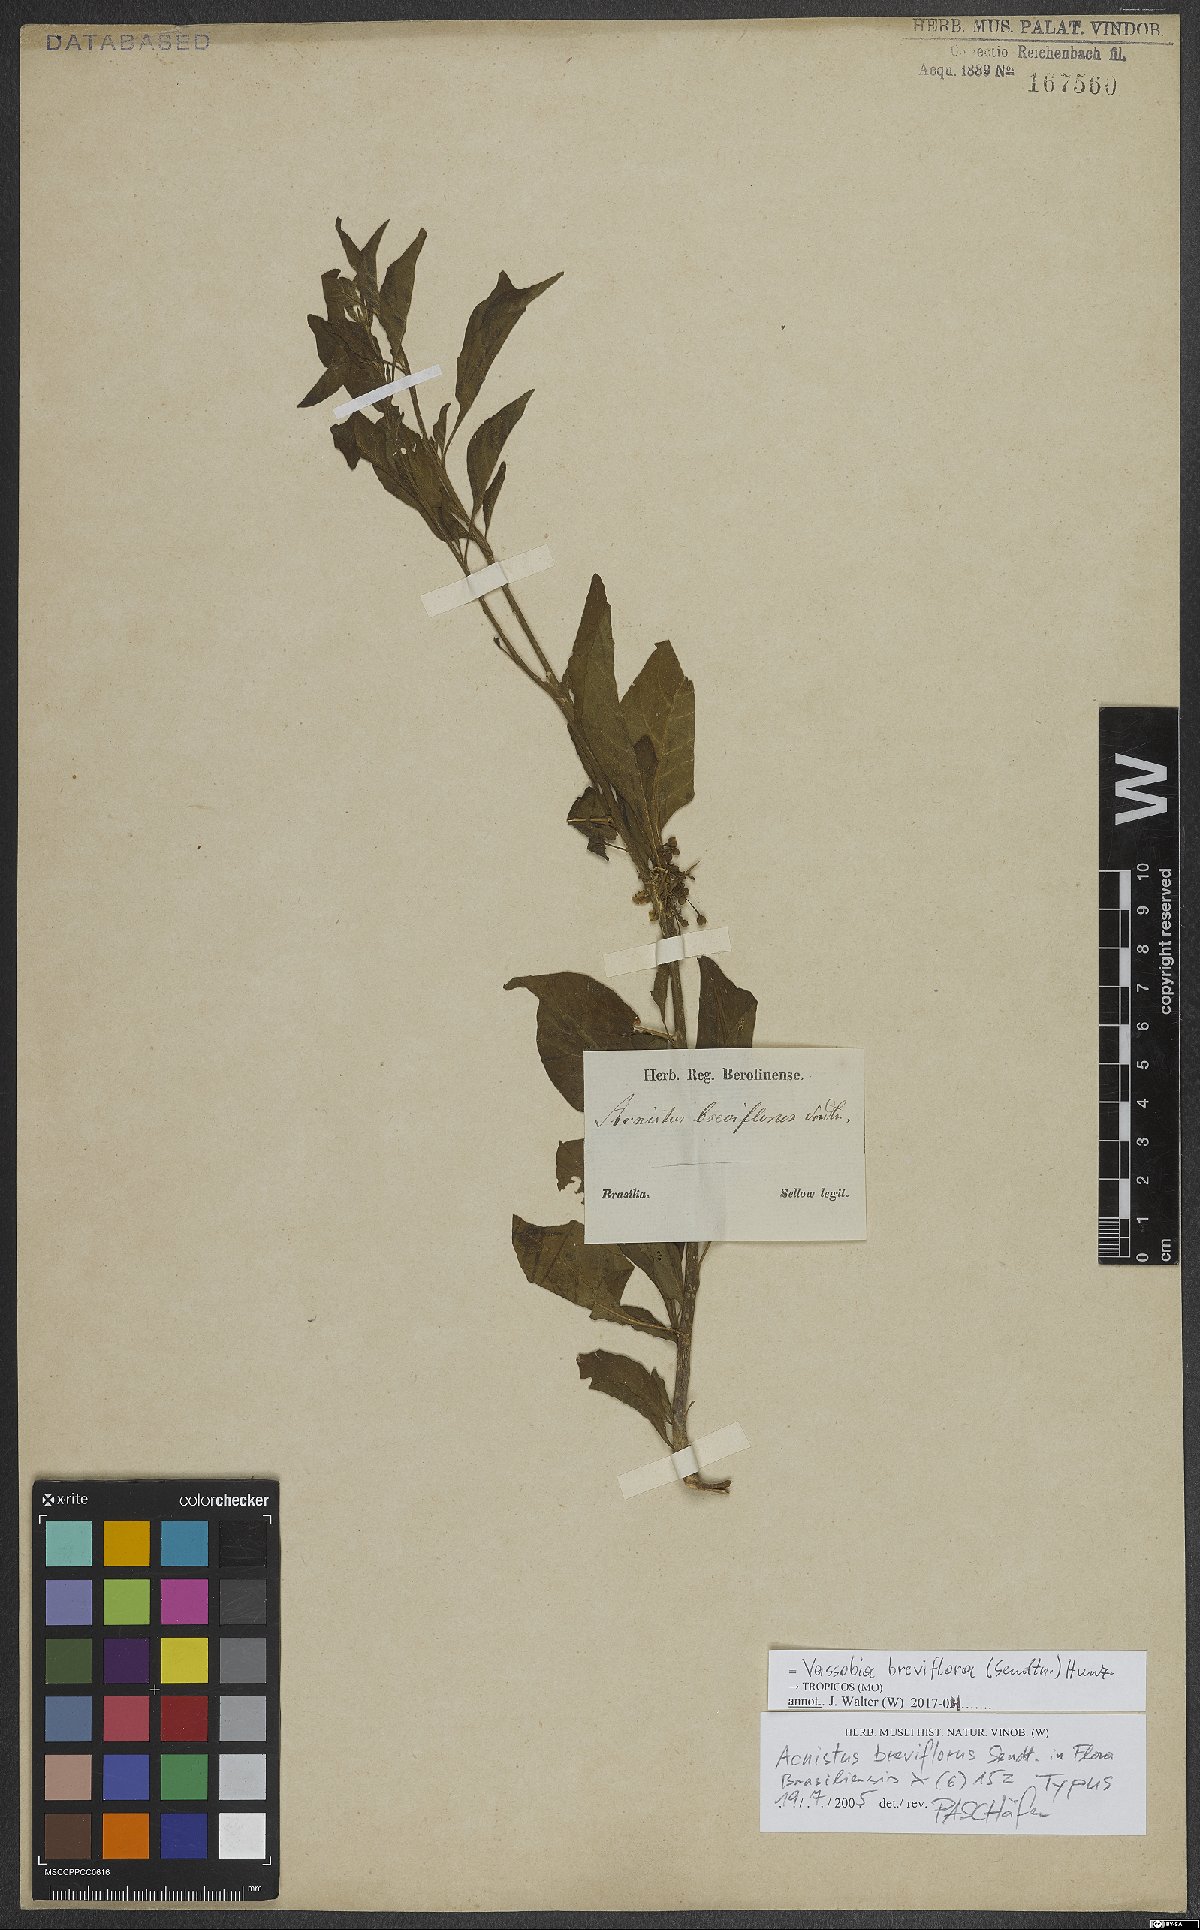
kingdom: Plantae
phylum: Tracheophyta
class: Magnoliopsida
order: Solanales
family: Solanaceae
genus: Vassobia
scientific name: Vassobia breviflora
